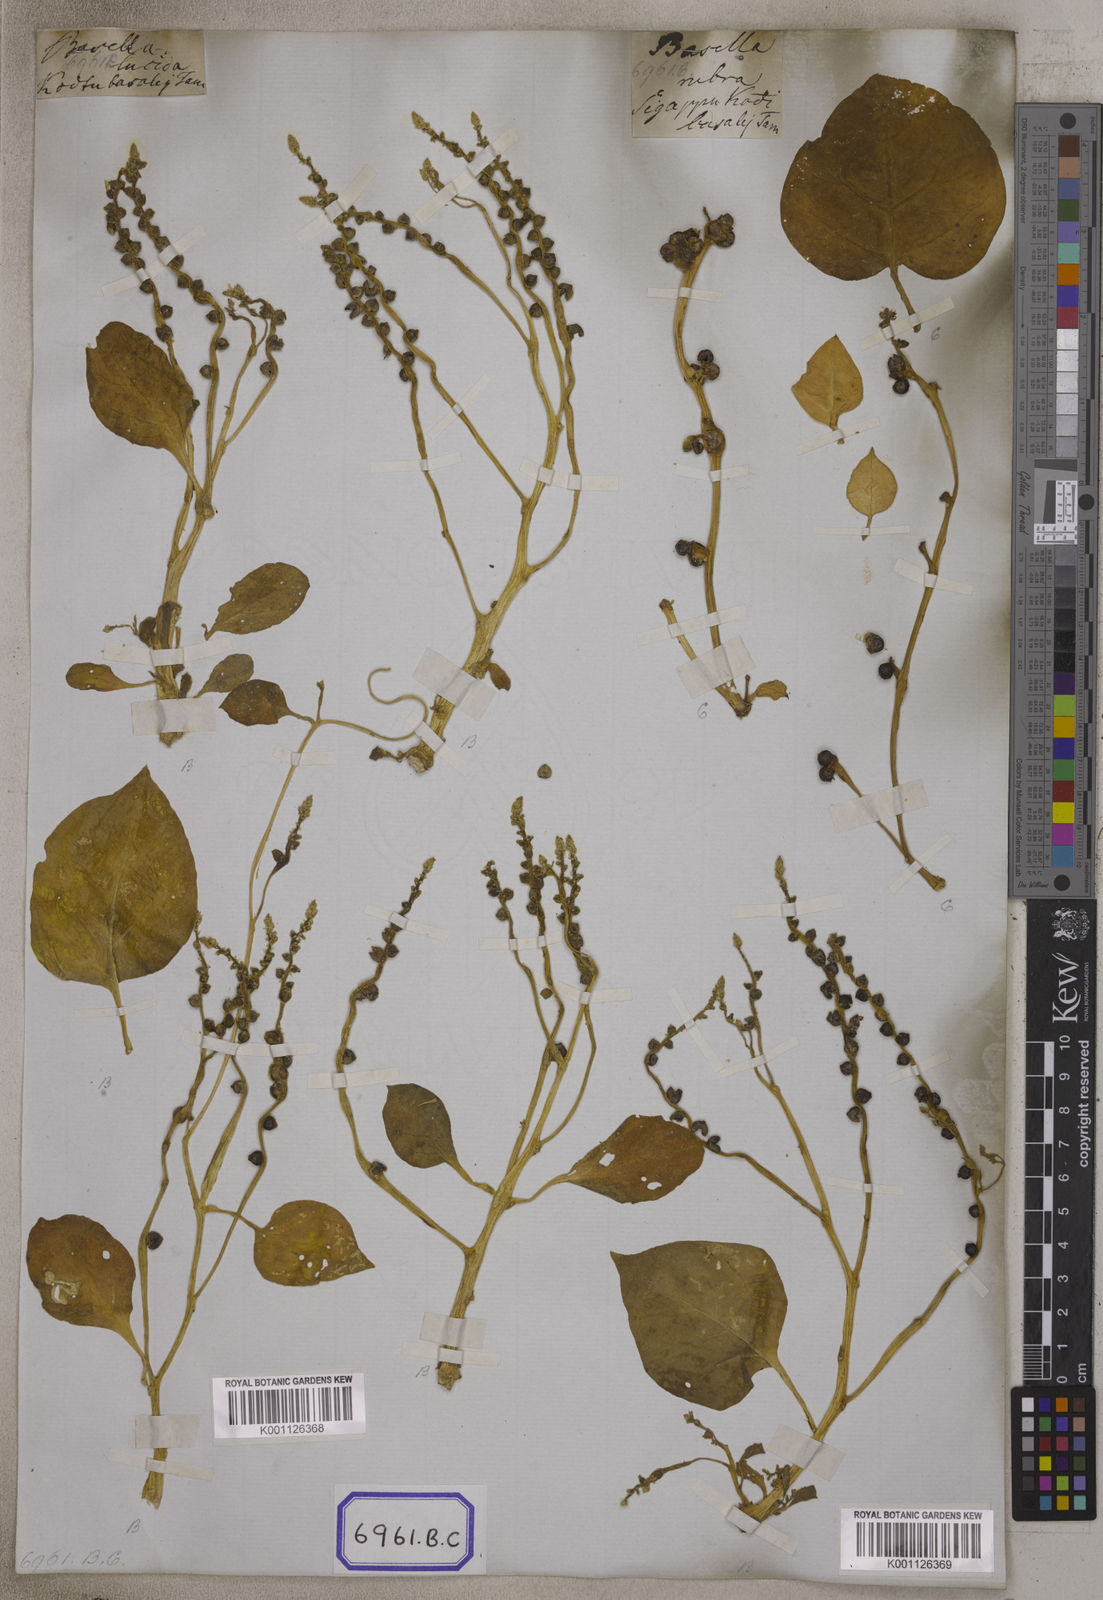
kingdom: Plantae
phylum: Tracheophyta
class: Magnoliopsida
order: Caryophyllales
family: Basellaceae
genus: Basella
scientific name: Basella alba
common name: Indian spinach
